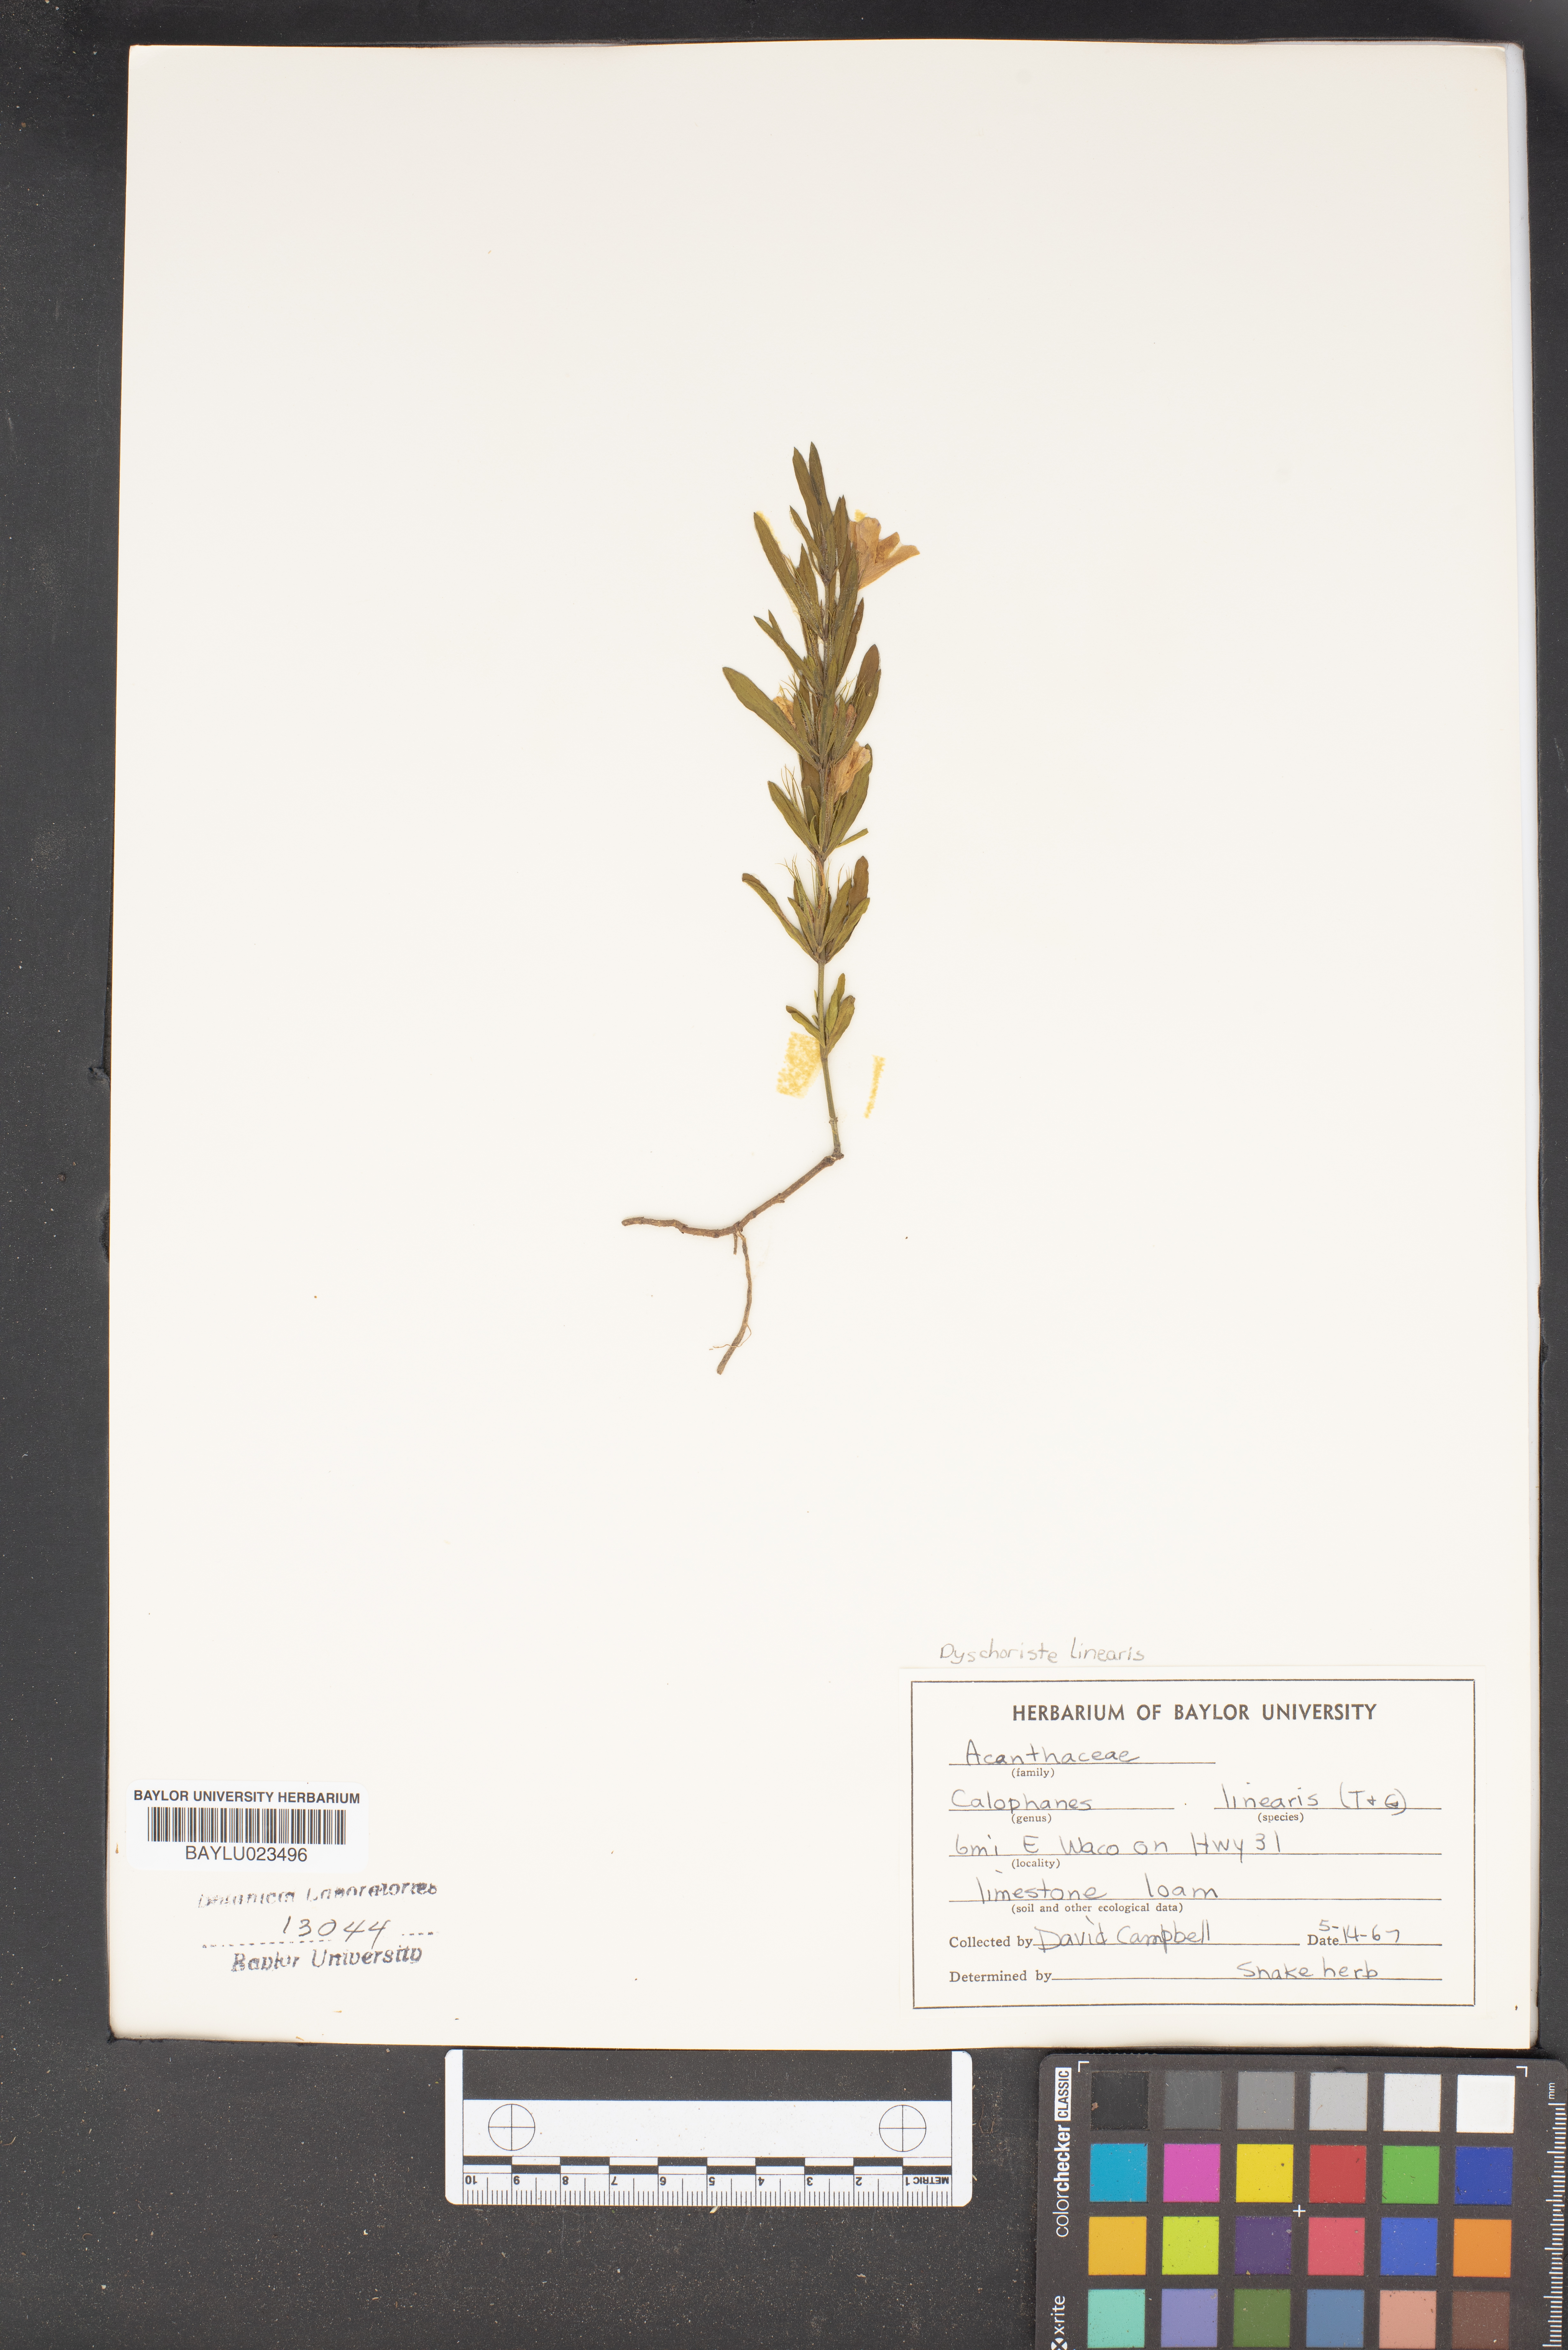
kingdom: Plantae
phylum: Tracheophyta
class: Magnoliopsida
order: Lamiales
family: Acanthaceae
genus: Dyschoriste
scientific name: Dyschoriste linearis
